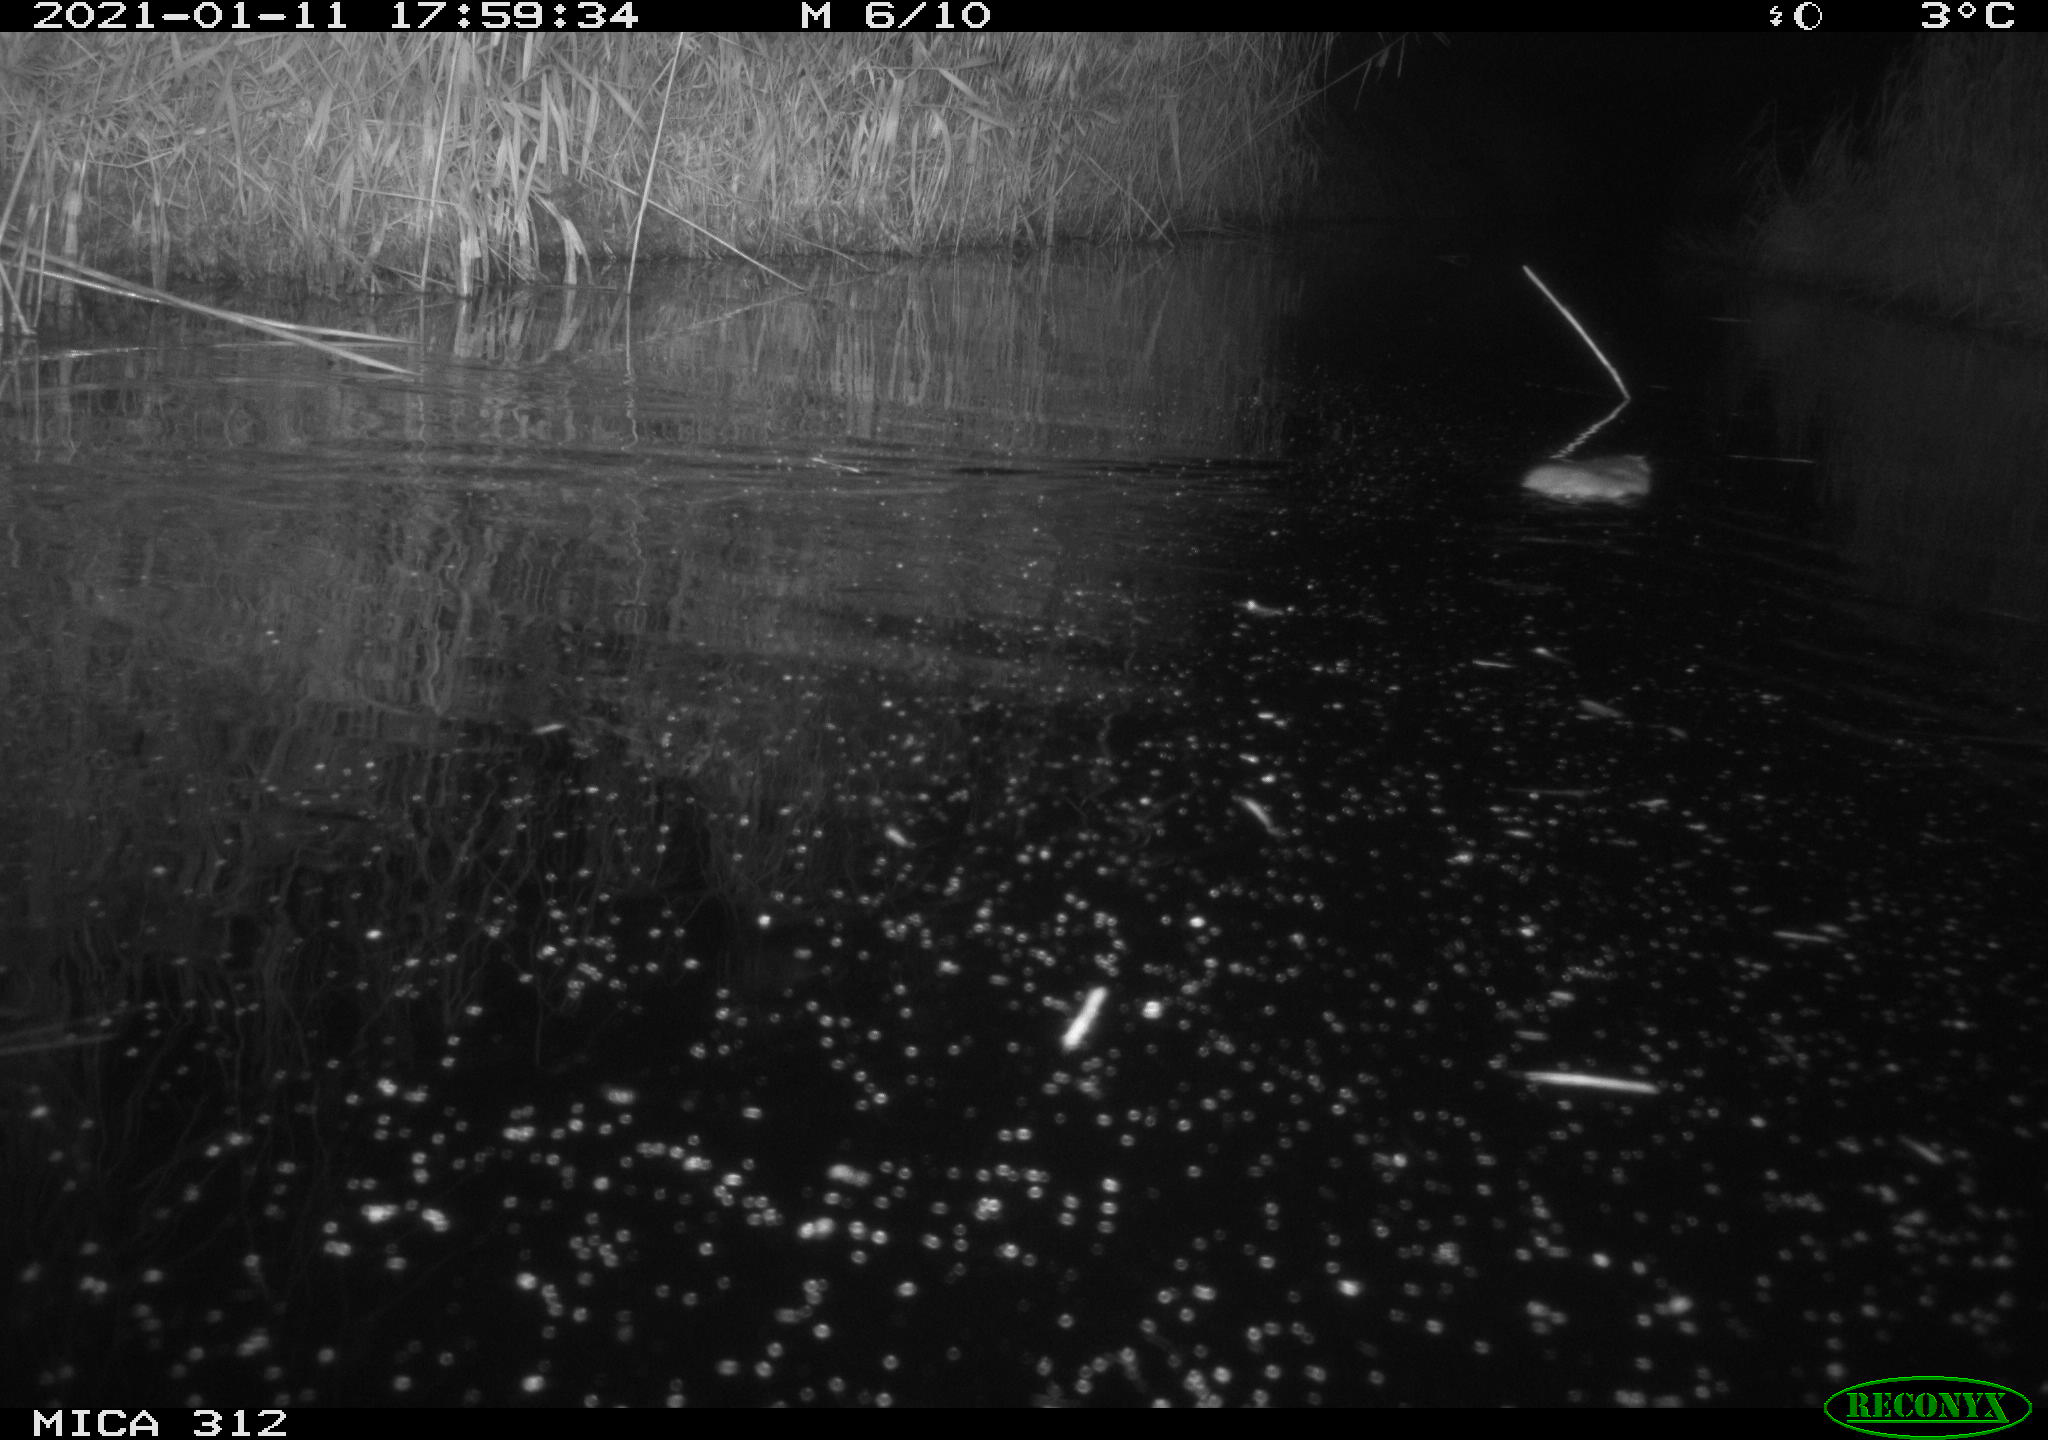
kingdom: Animalia
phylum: Chordata
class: Mammalia
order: Rodentia
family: Muridae
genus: Rattus
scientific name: Rattus norvegicus
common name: Brown rat
